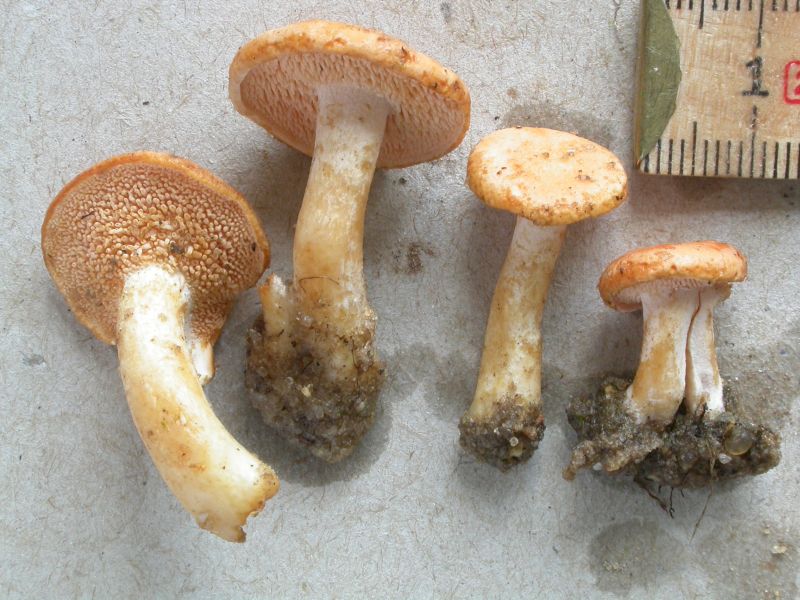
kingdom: Fungi
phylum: Basidiomycota
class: Agaricomycetes
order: Cantharellales
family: Hydnaceae
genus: Hydnum
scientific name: Hydnum ellipsosporum
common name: tandet pigsvamp
